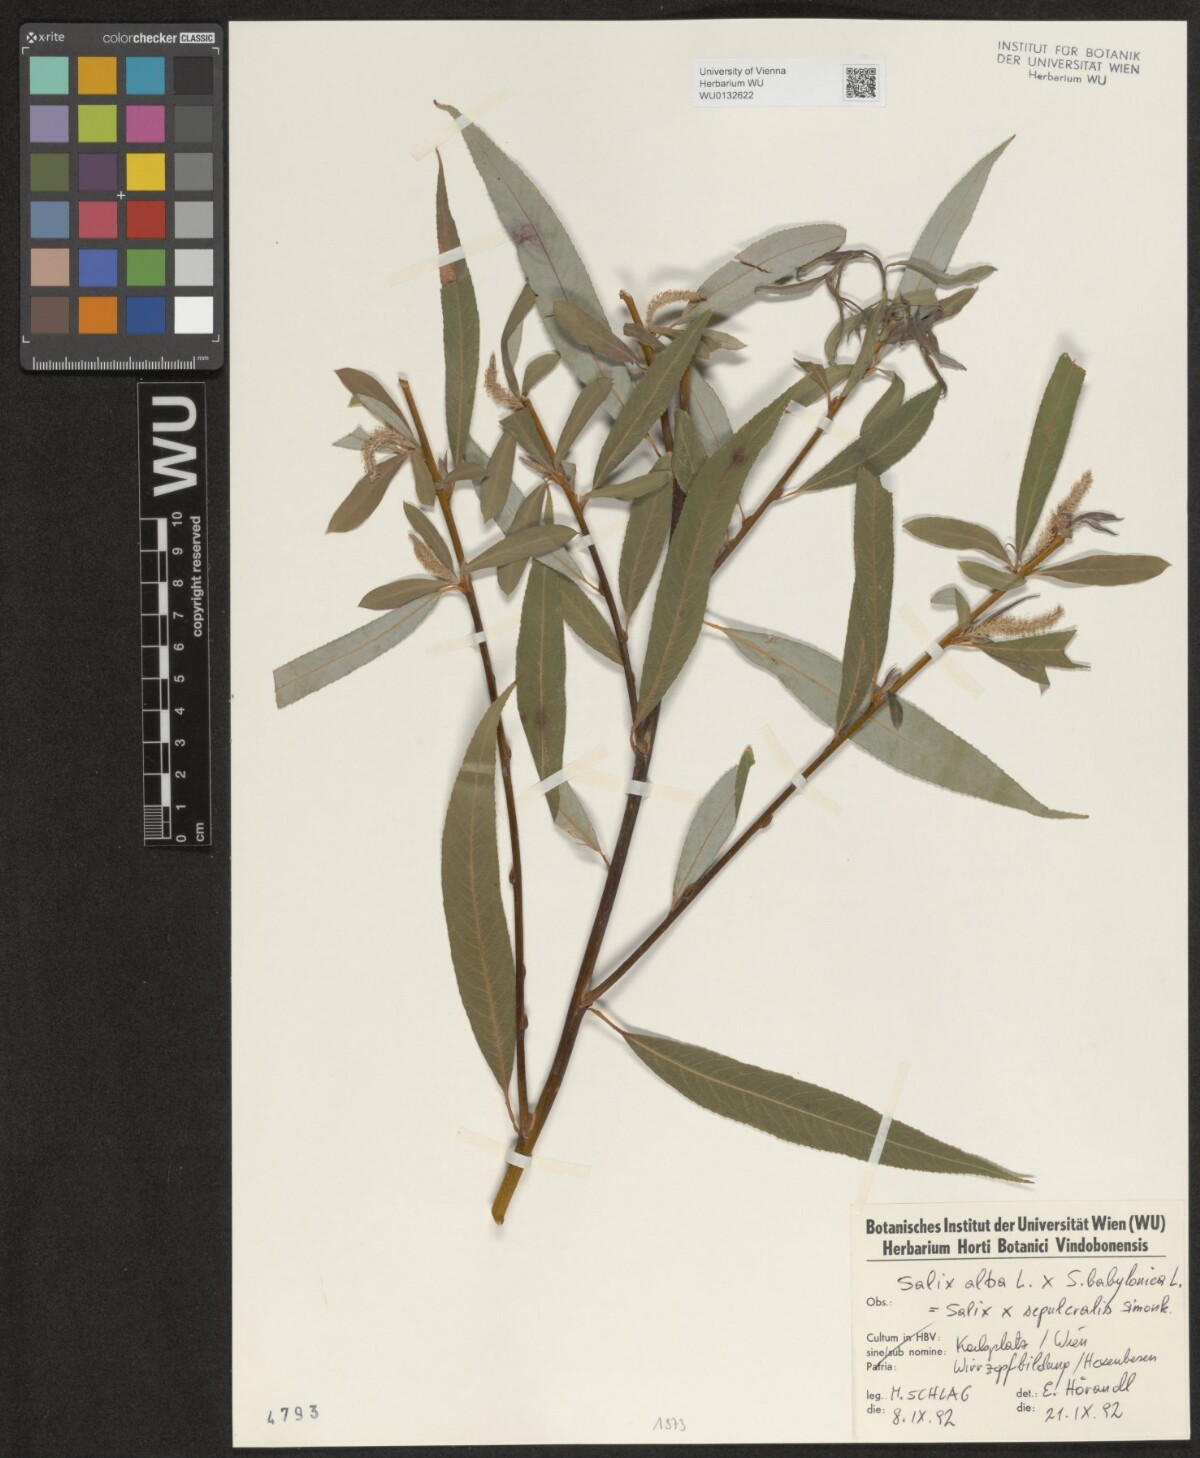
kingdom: Plantae
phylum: Tracheophyta
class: Magnoliopsida
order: Malpighiales
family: Salicaceae
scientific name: Salicaceae
